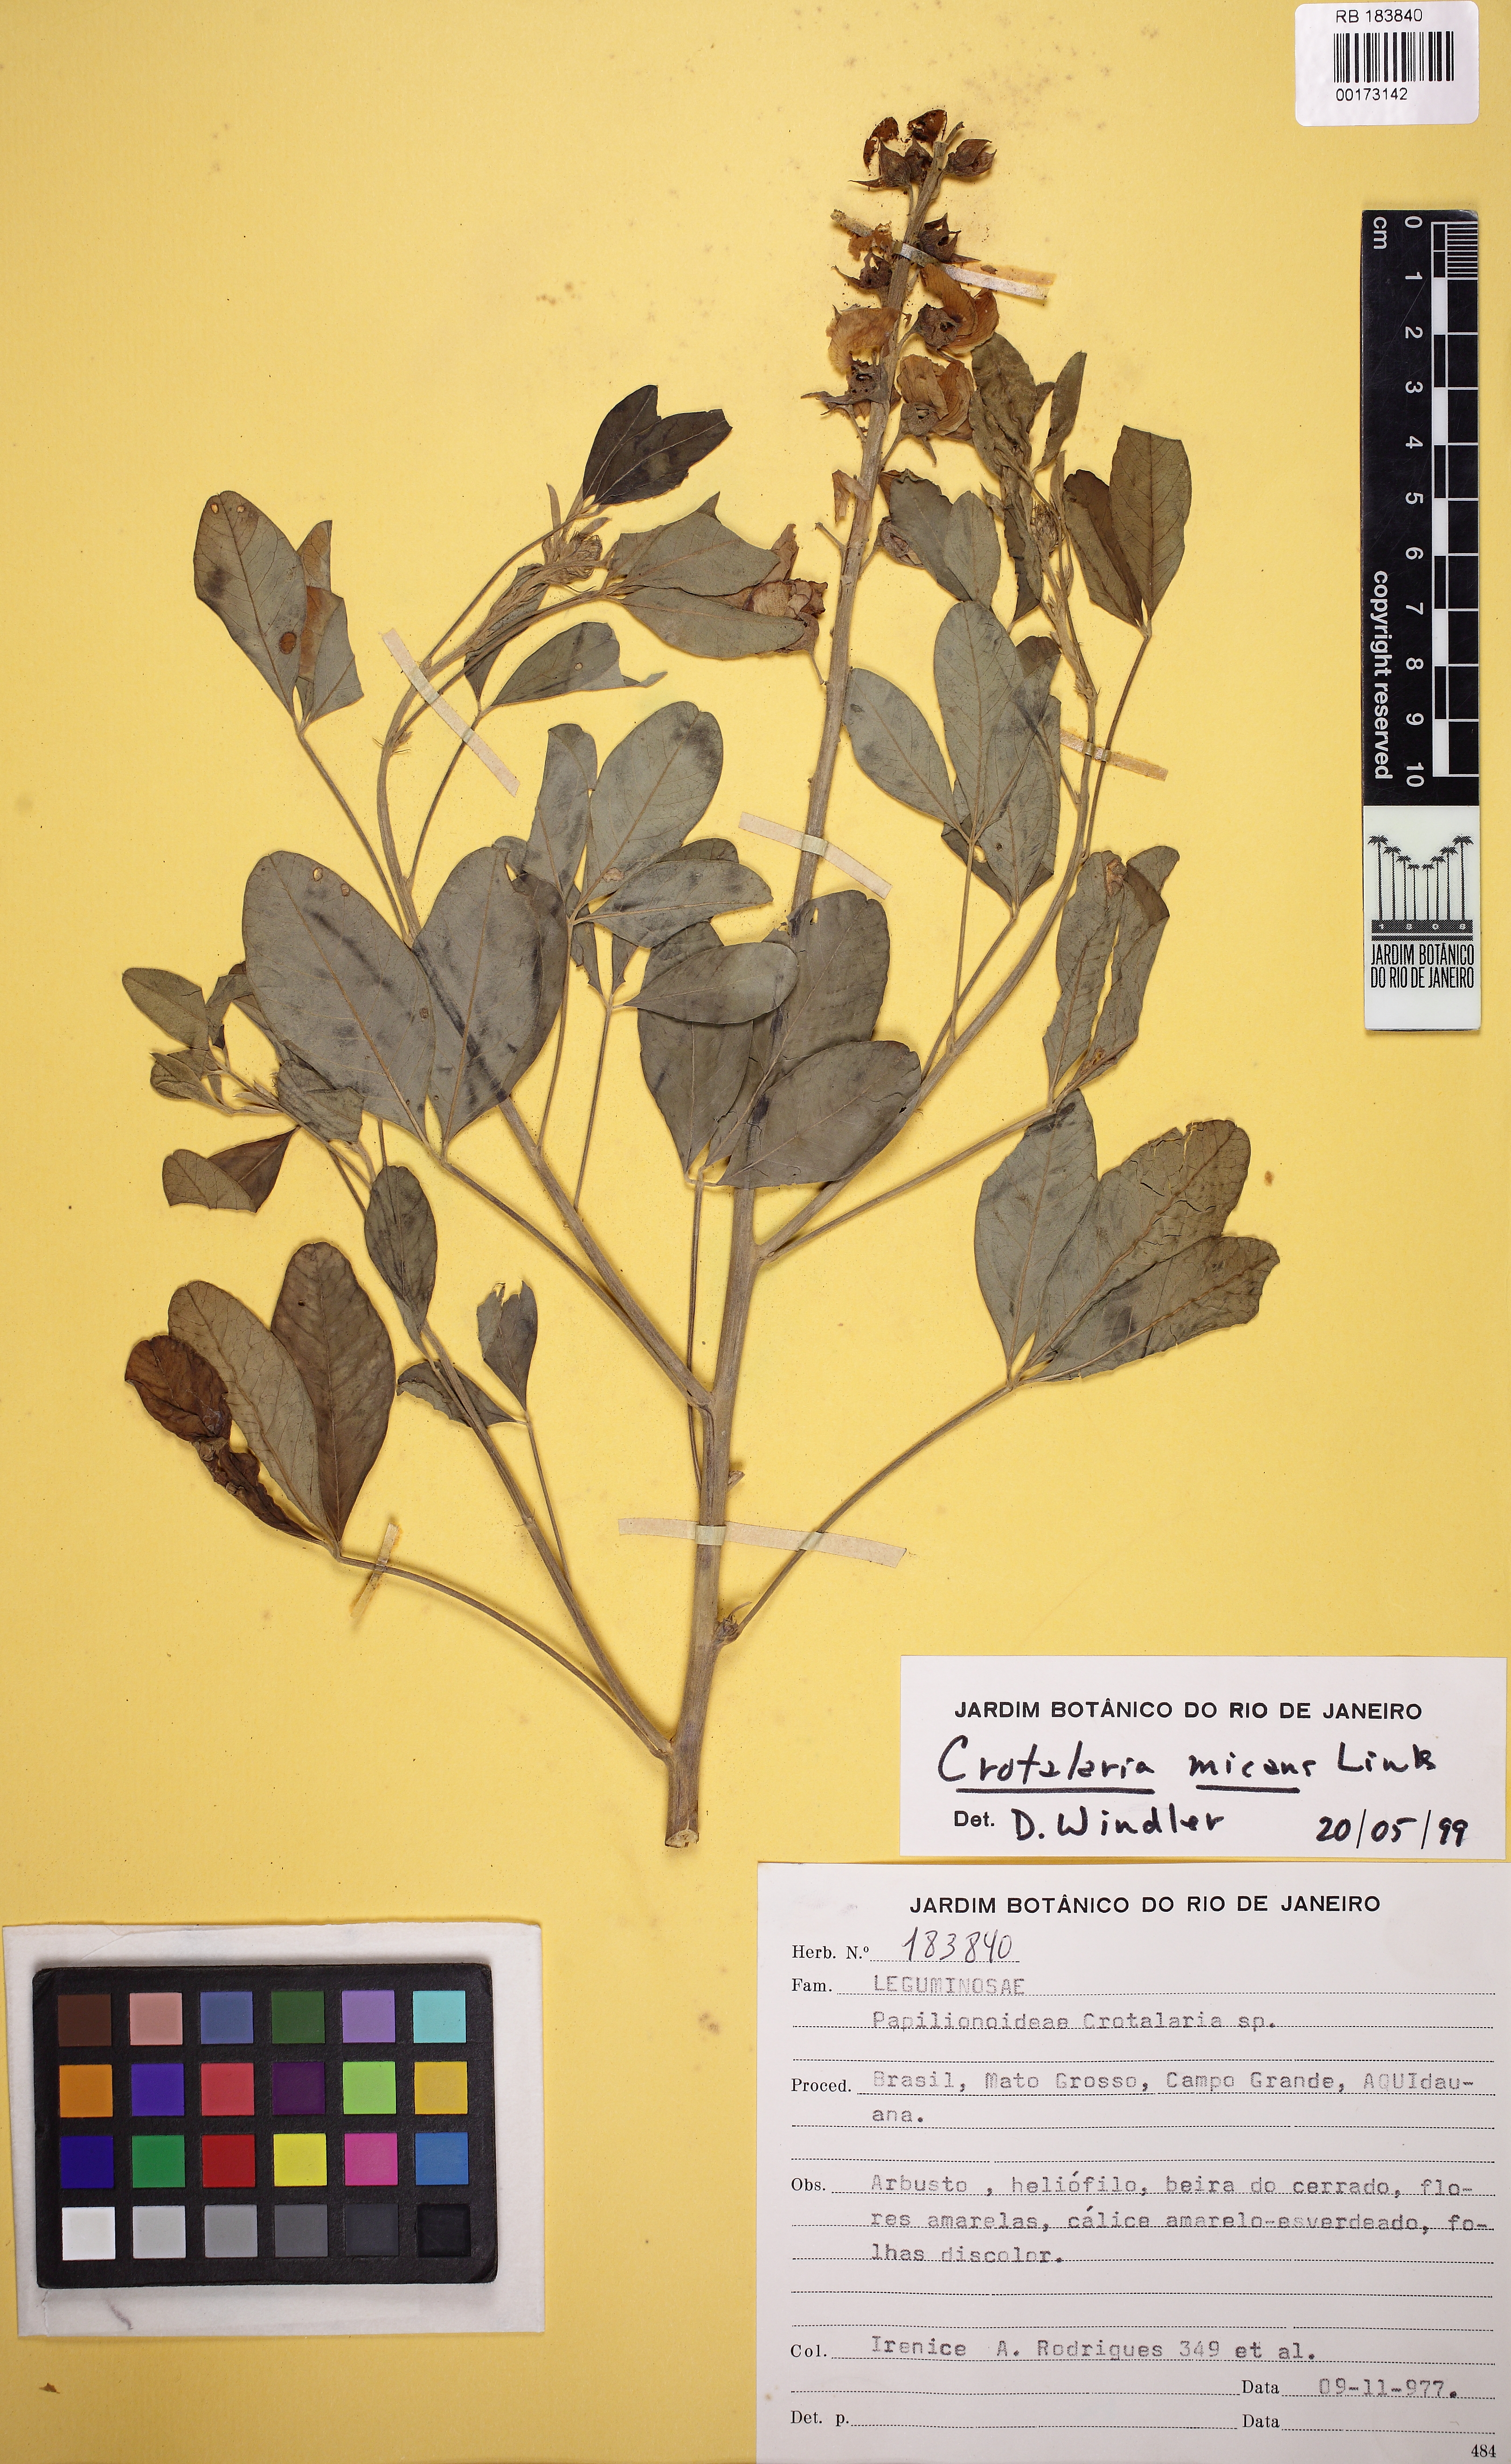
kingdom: Plantae
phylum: Tracheophyta
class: Magnoliopsida
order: Fabales
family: Fabaceae
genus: Crotalaria
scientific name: Crotalaria micans
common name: Caracas rattlebox
